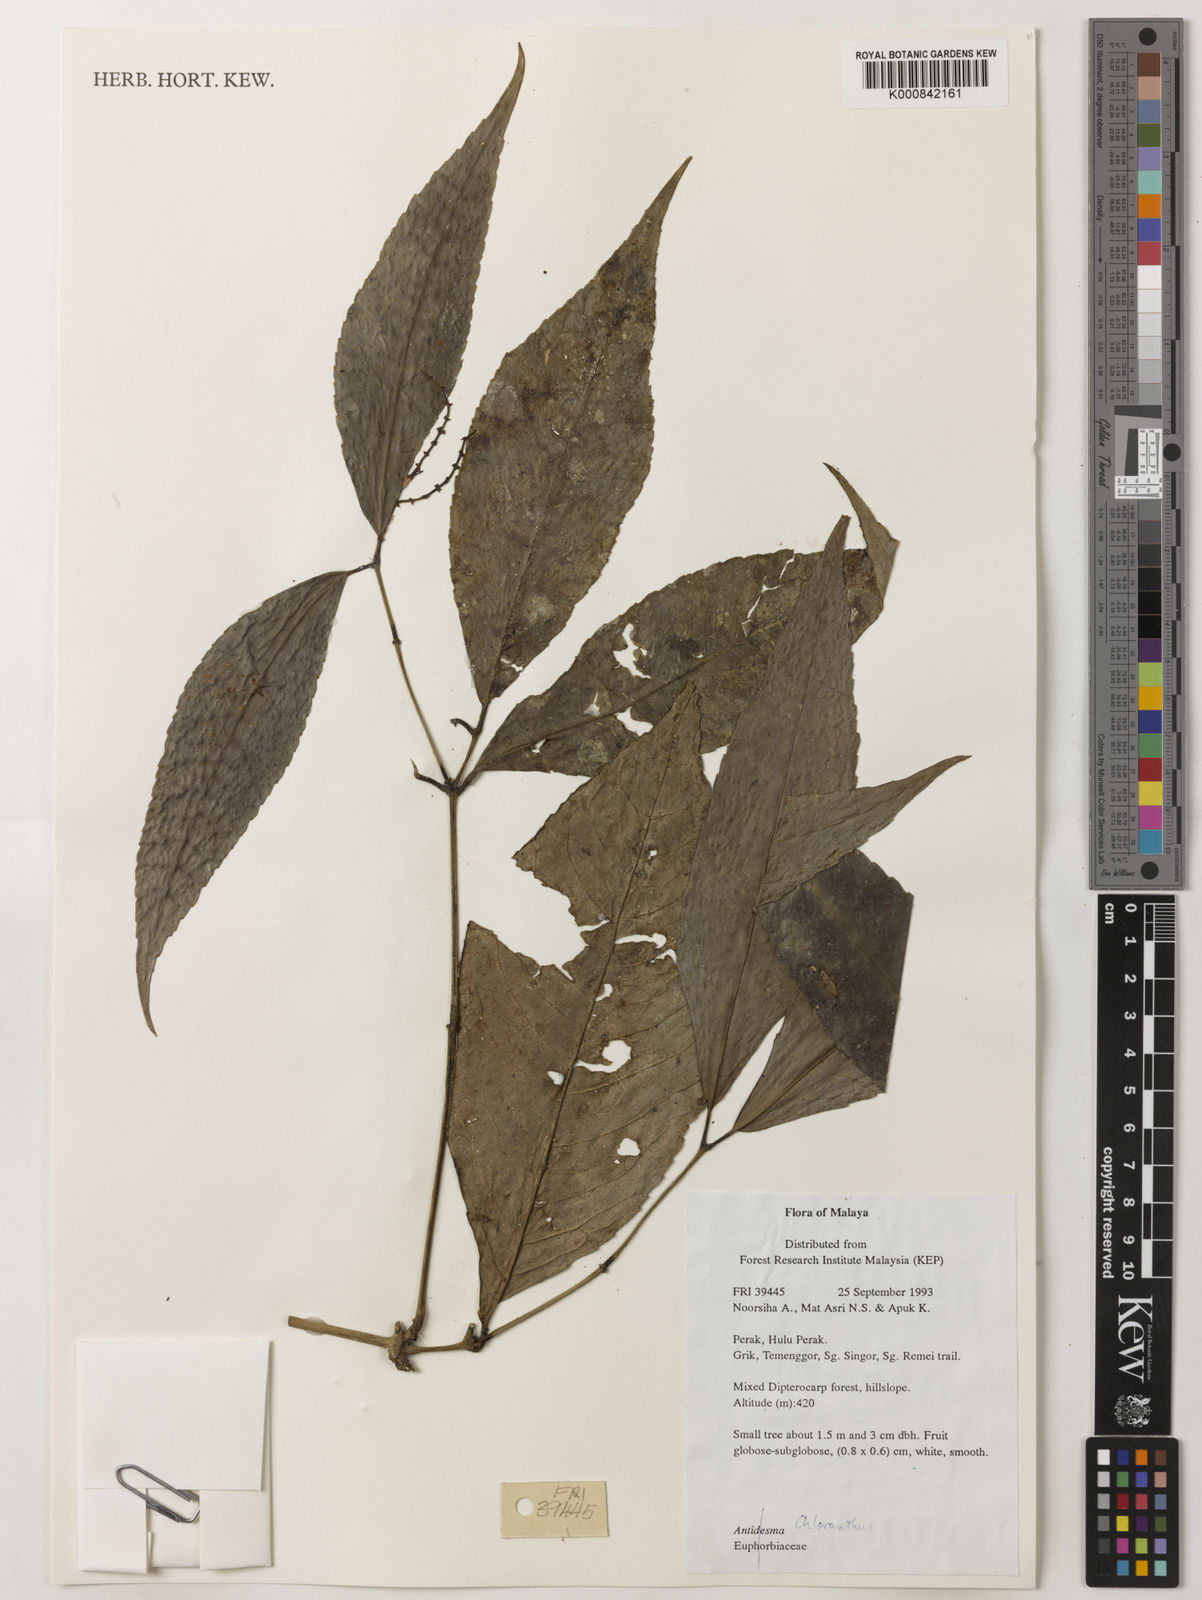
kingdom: Plantae
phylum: Tracheophyta
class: Magnoliopsida
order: Chloranthales
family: Chloranthaceae
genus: Chloranthus
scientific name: Chloranthus
